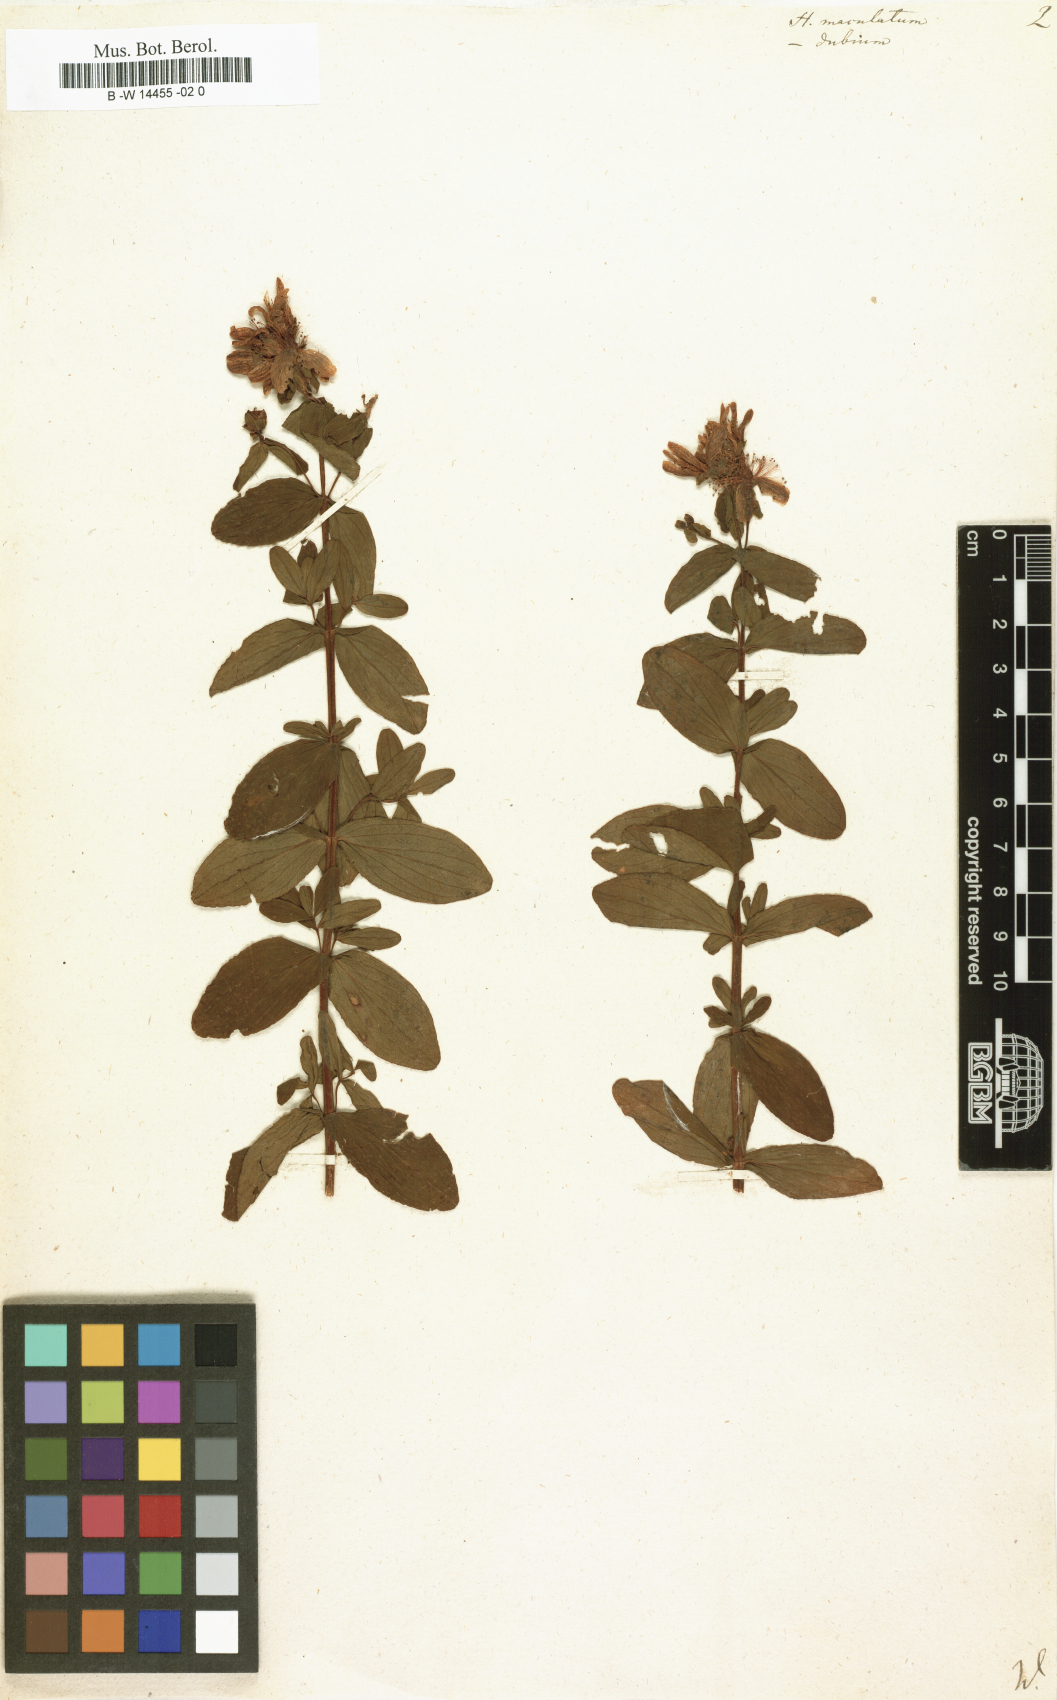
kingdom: Plantae
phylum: Tracheophyta
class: Magnoliopsida
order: Malpighiales
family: Hypericaceae
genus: Hypericum
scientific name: Hypericum maculatum
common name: Imperforate st. john's-wort
